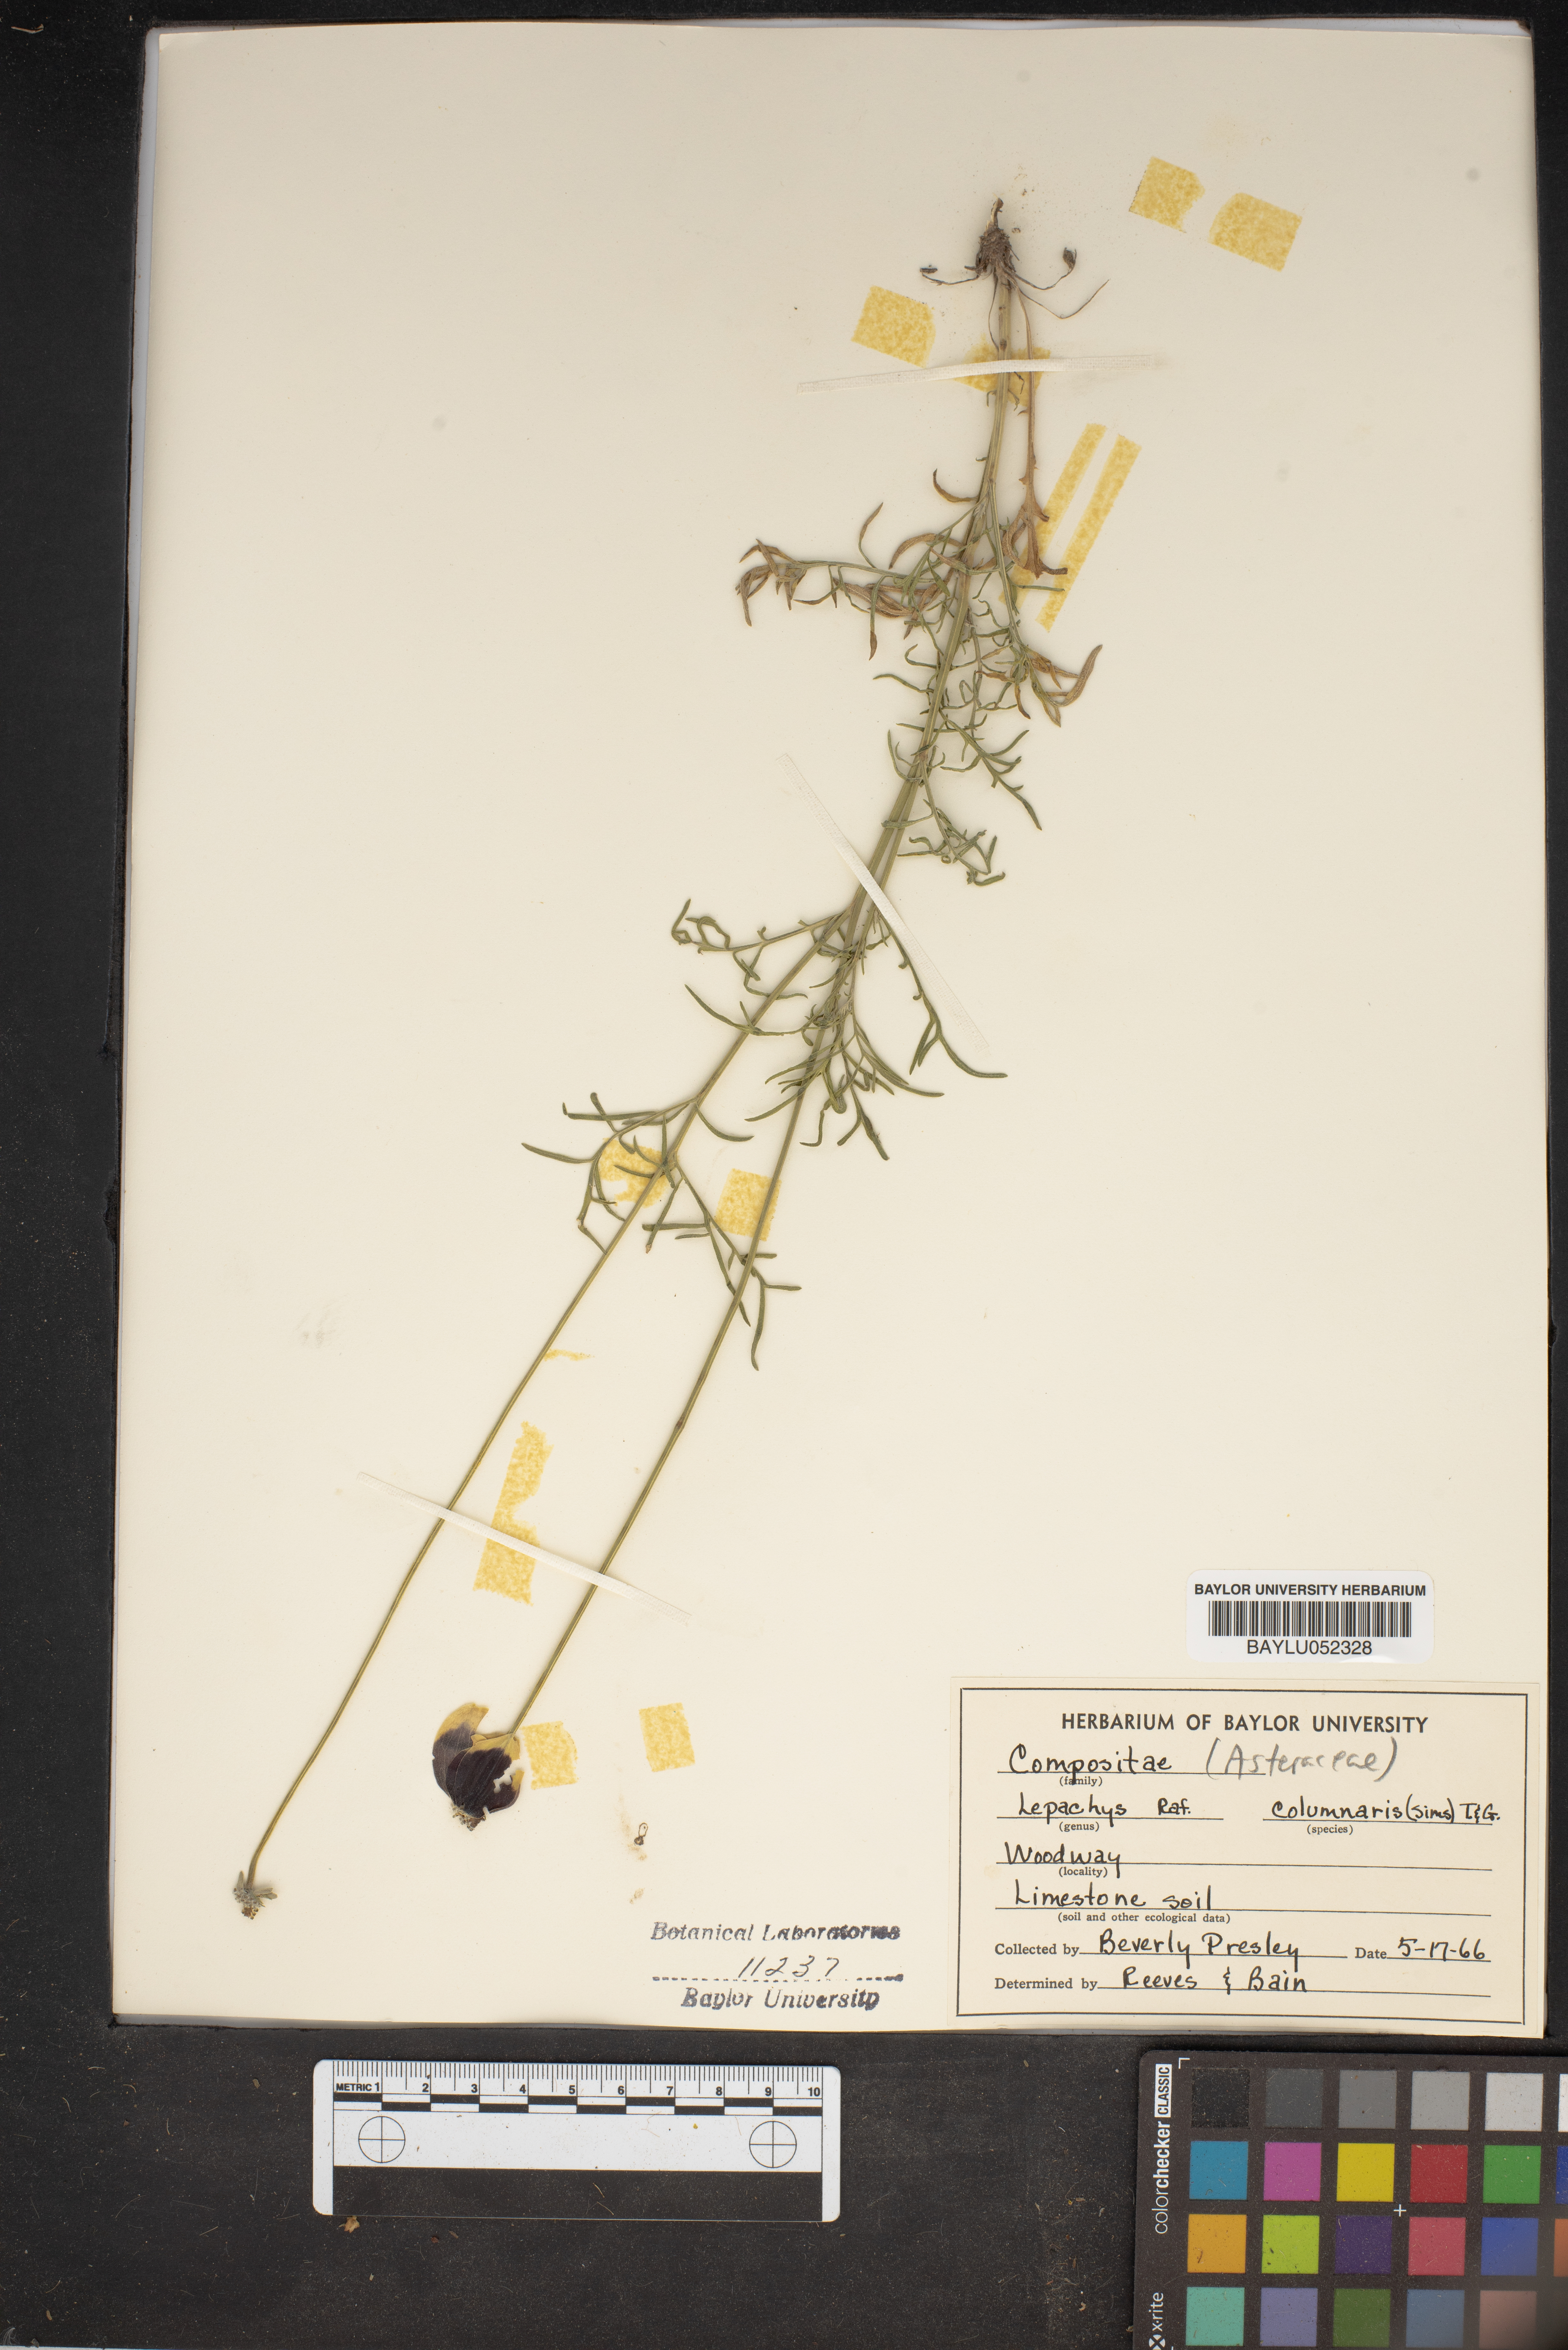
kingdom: Plantae
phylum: Tracheophyta
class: Magnoliopsida
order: Asterales
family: Asteraceae
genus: Ratibida
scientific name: Ratibida columnifera
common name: Prairie coneflower
